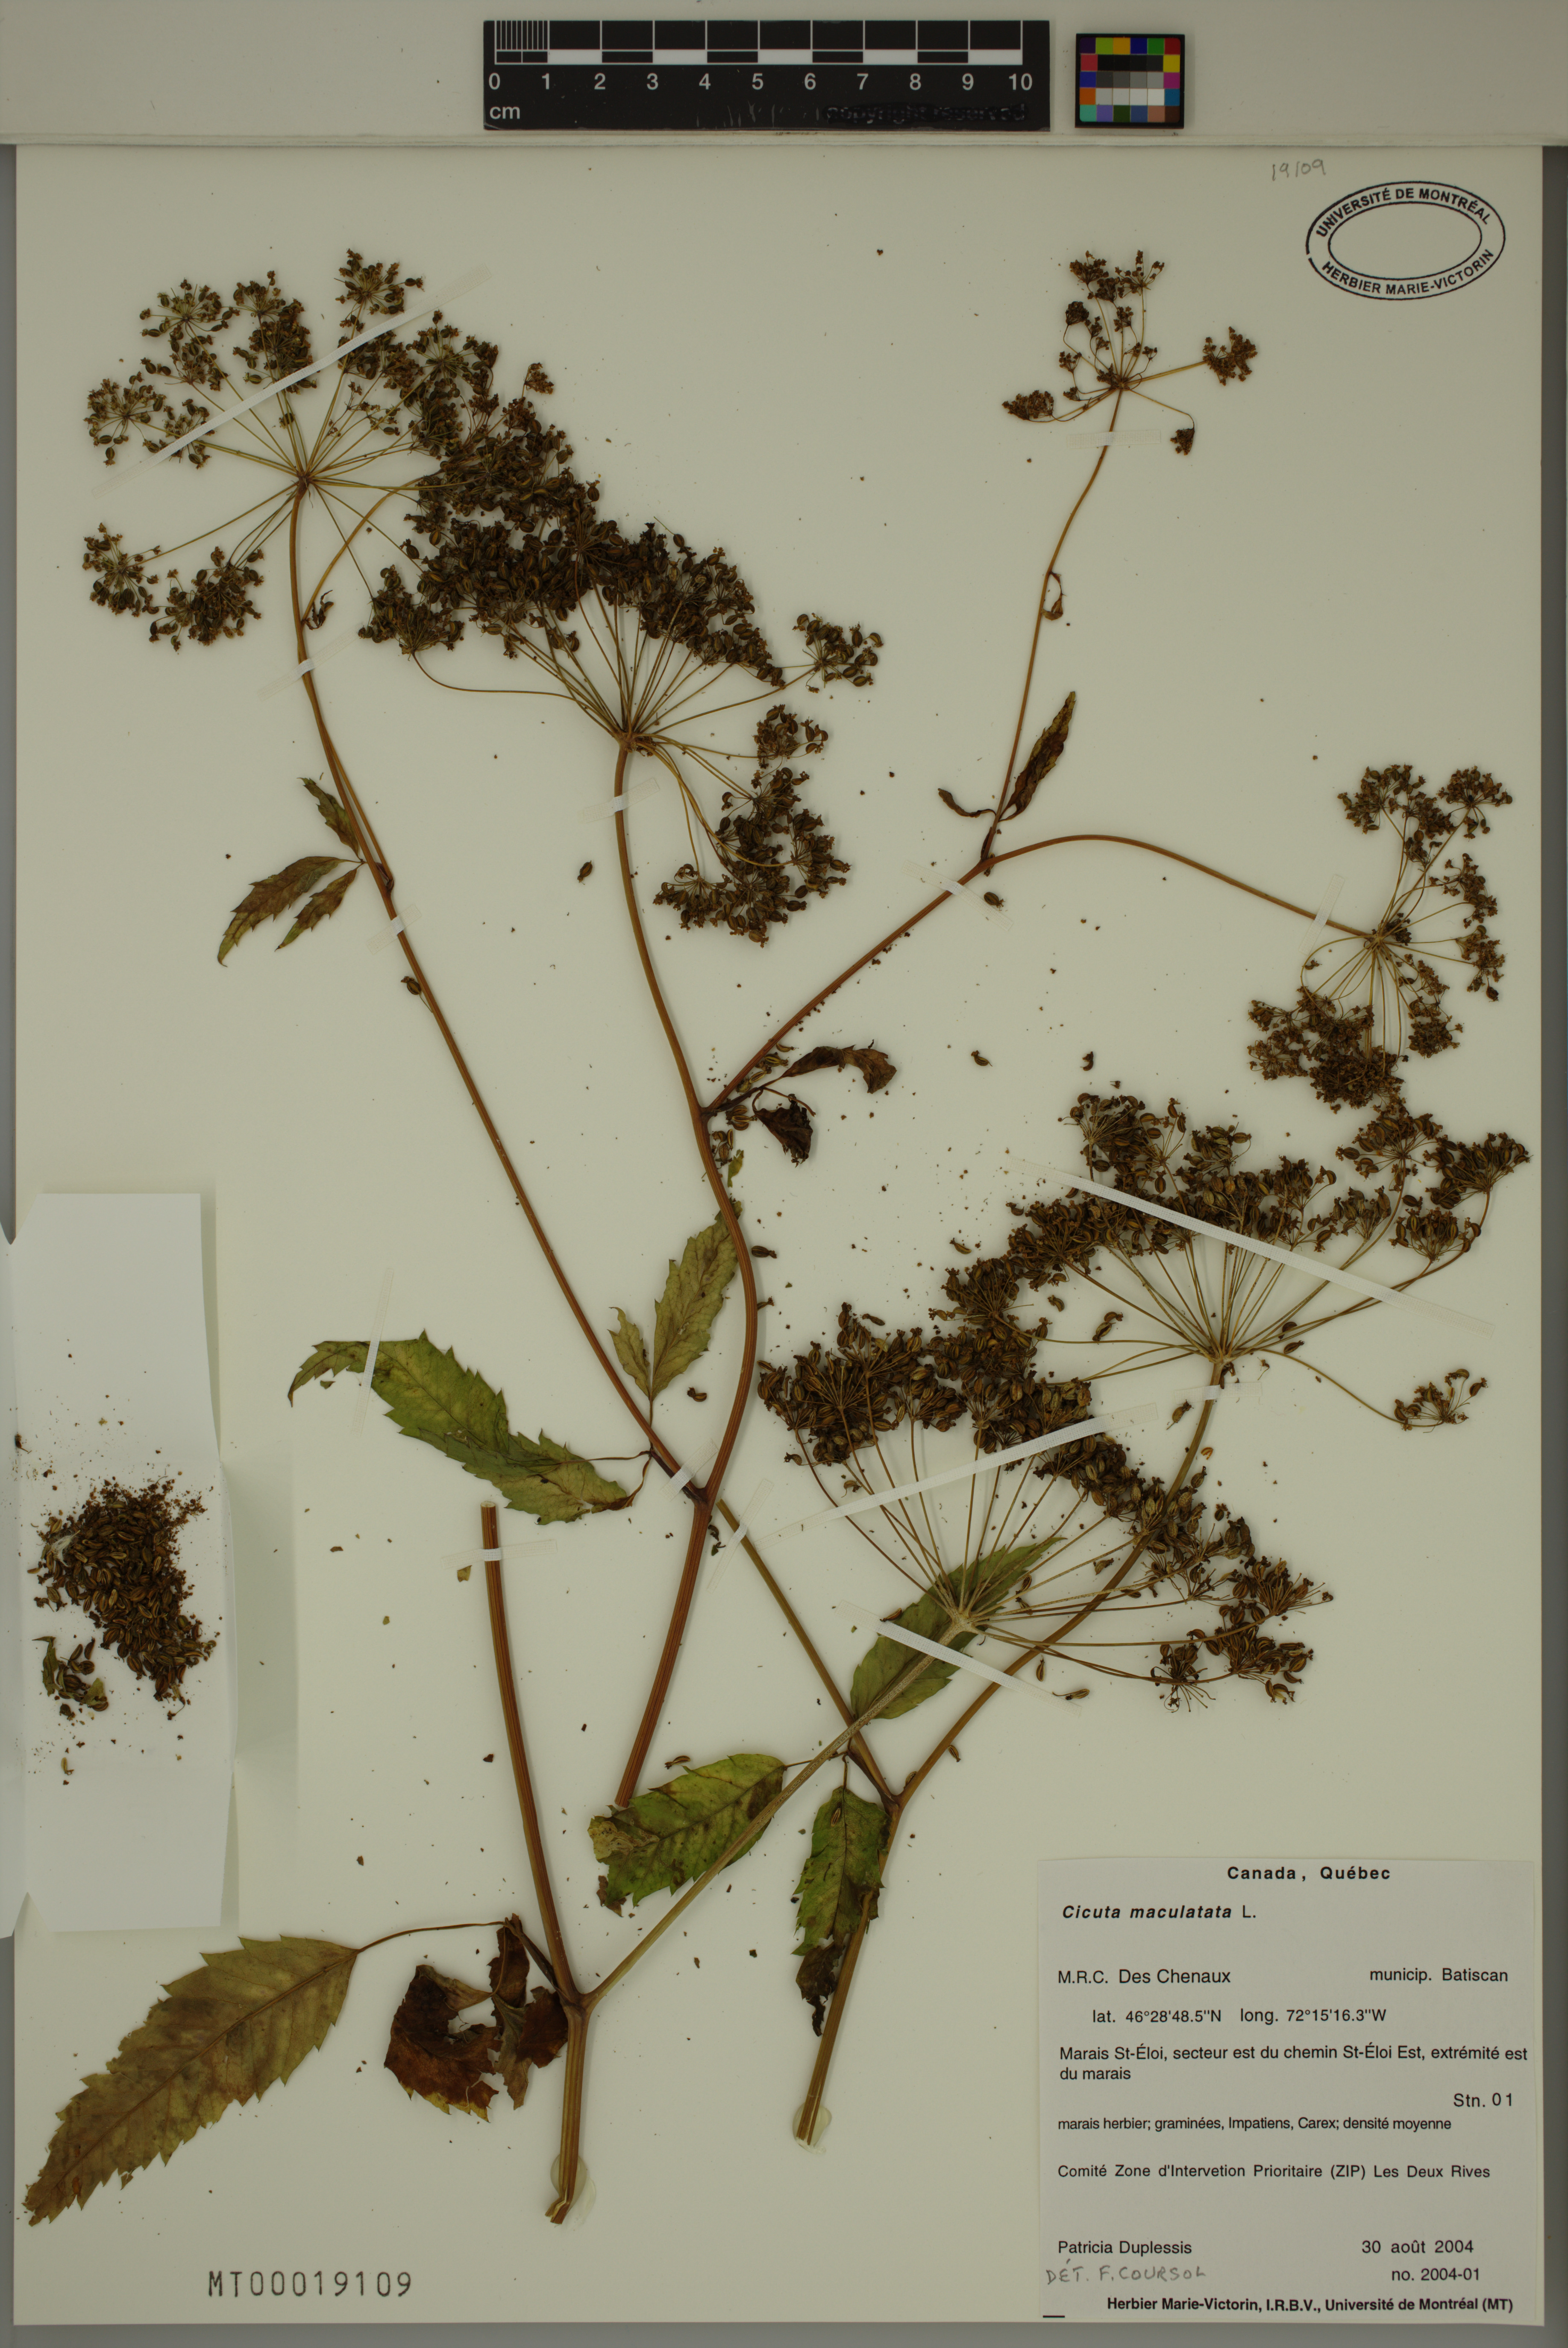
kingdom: Plantae
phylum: Tracheophyta
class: Magnoliopsida
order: Apiales
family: Apiaceae
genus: Cicuta
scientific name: Cicuta maculata
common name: Spotted cowbane
